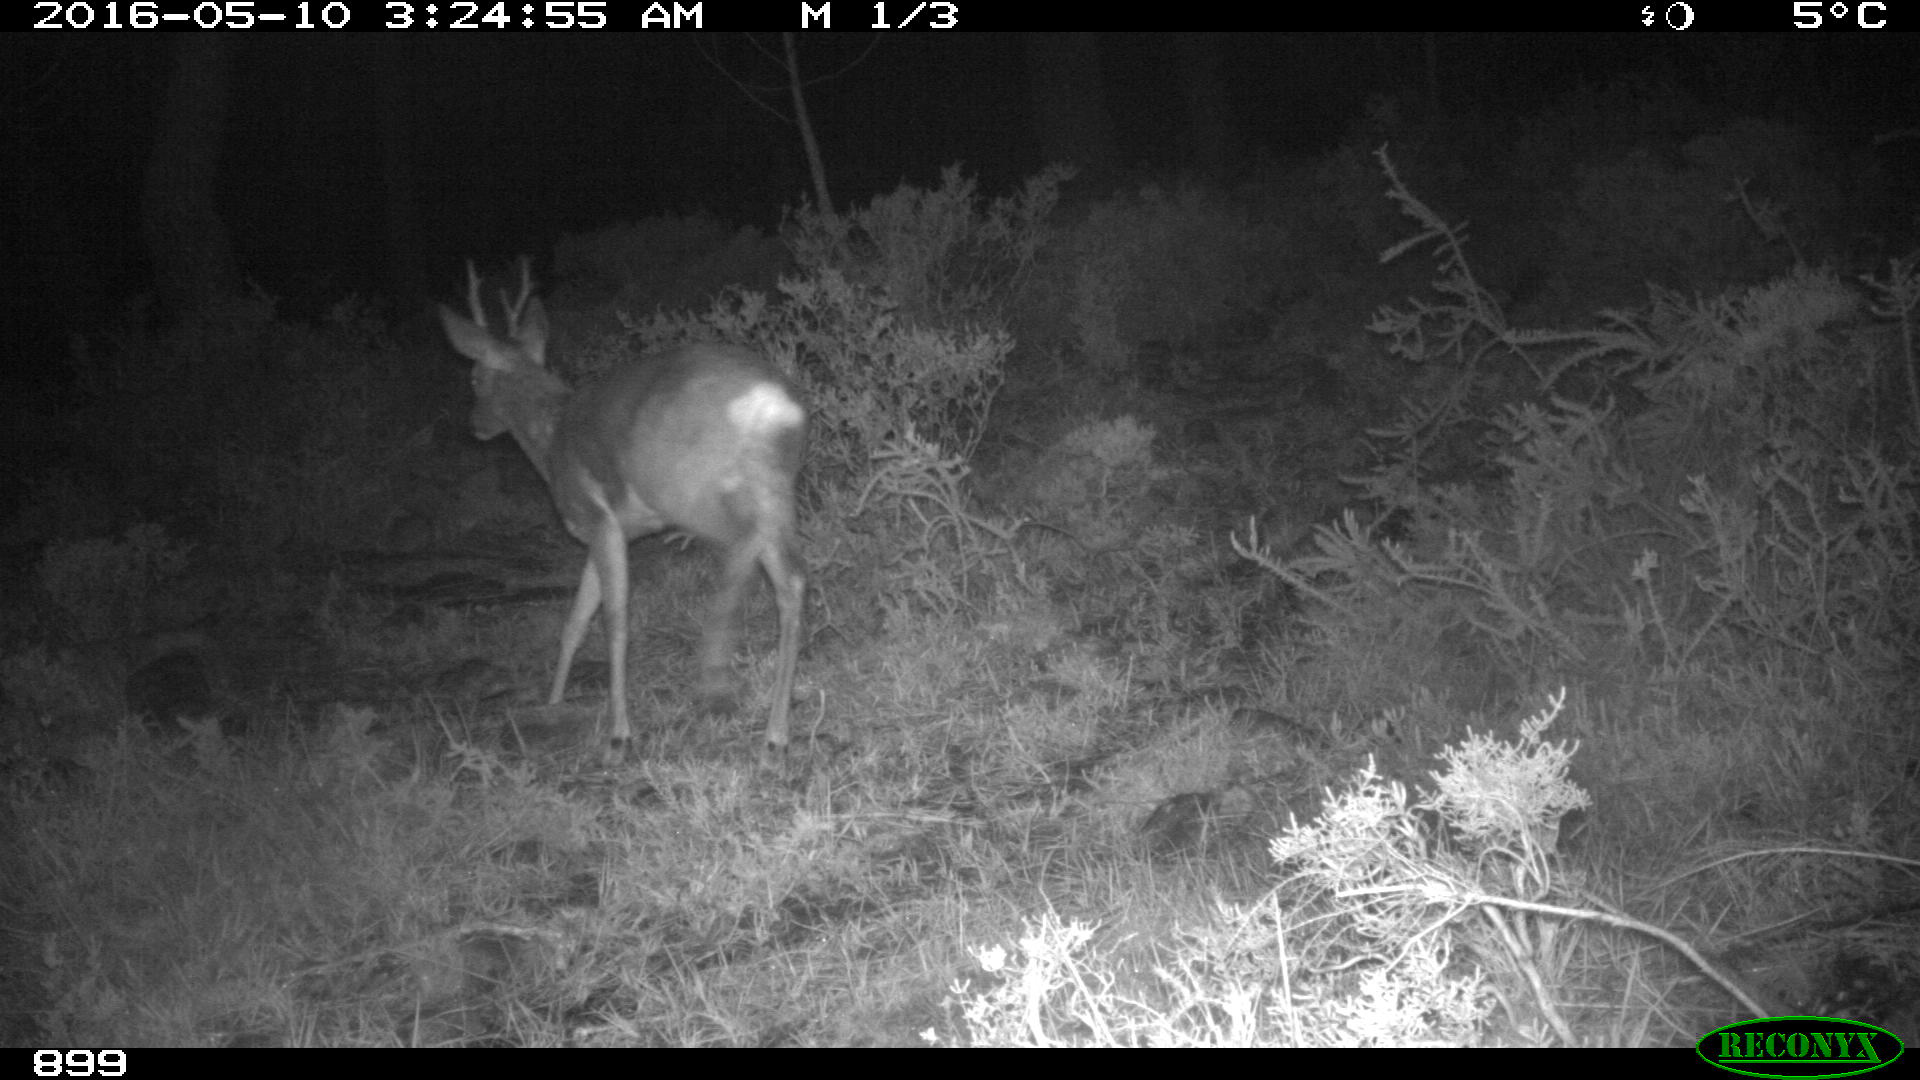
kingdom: Animalia
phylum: Chordata
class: Mammalia
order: Artiodactyla
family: Cervidae
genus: Capreolus
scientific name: Capreolus capreolus
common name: Western roe deer
